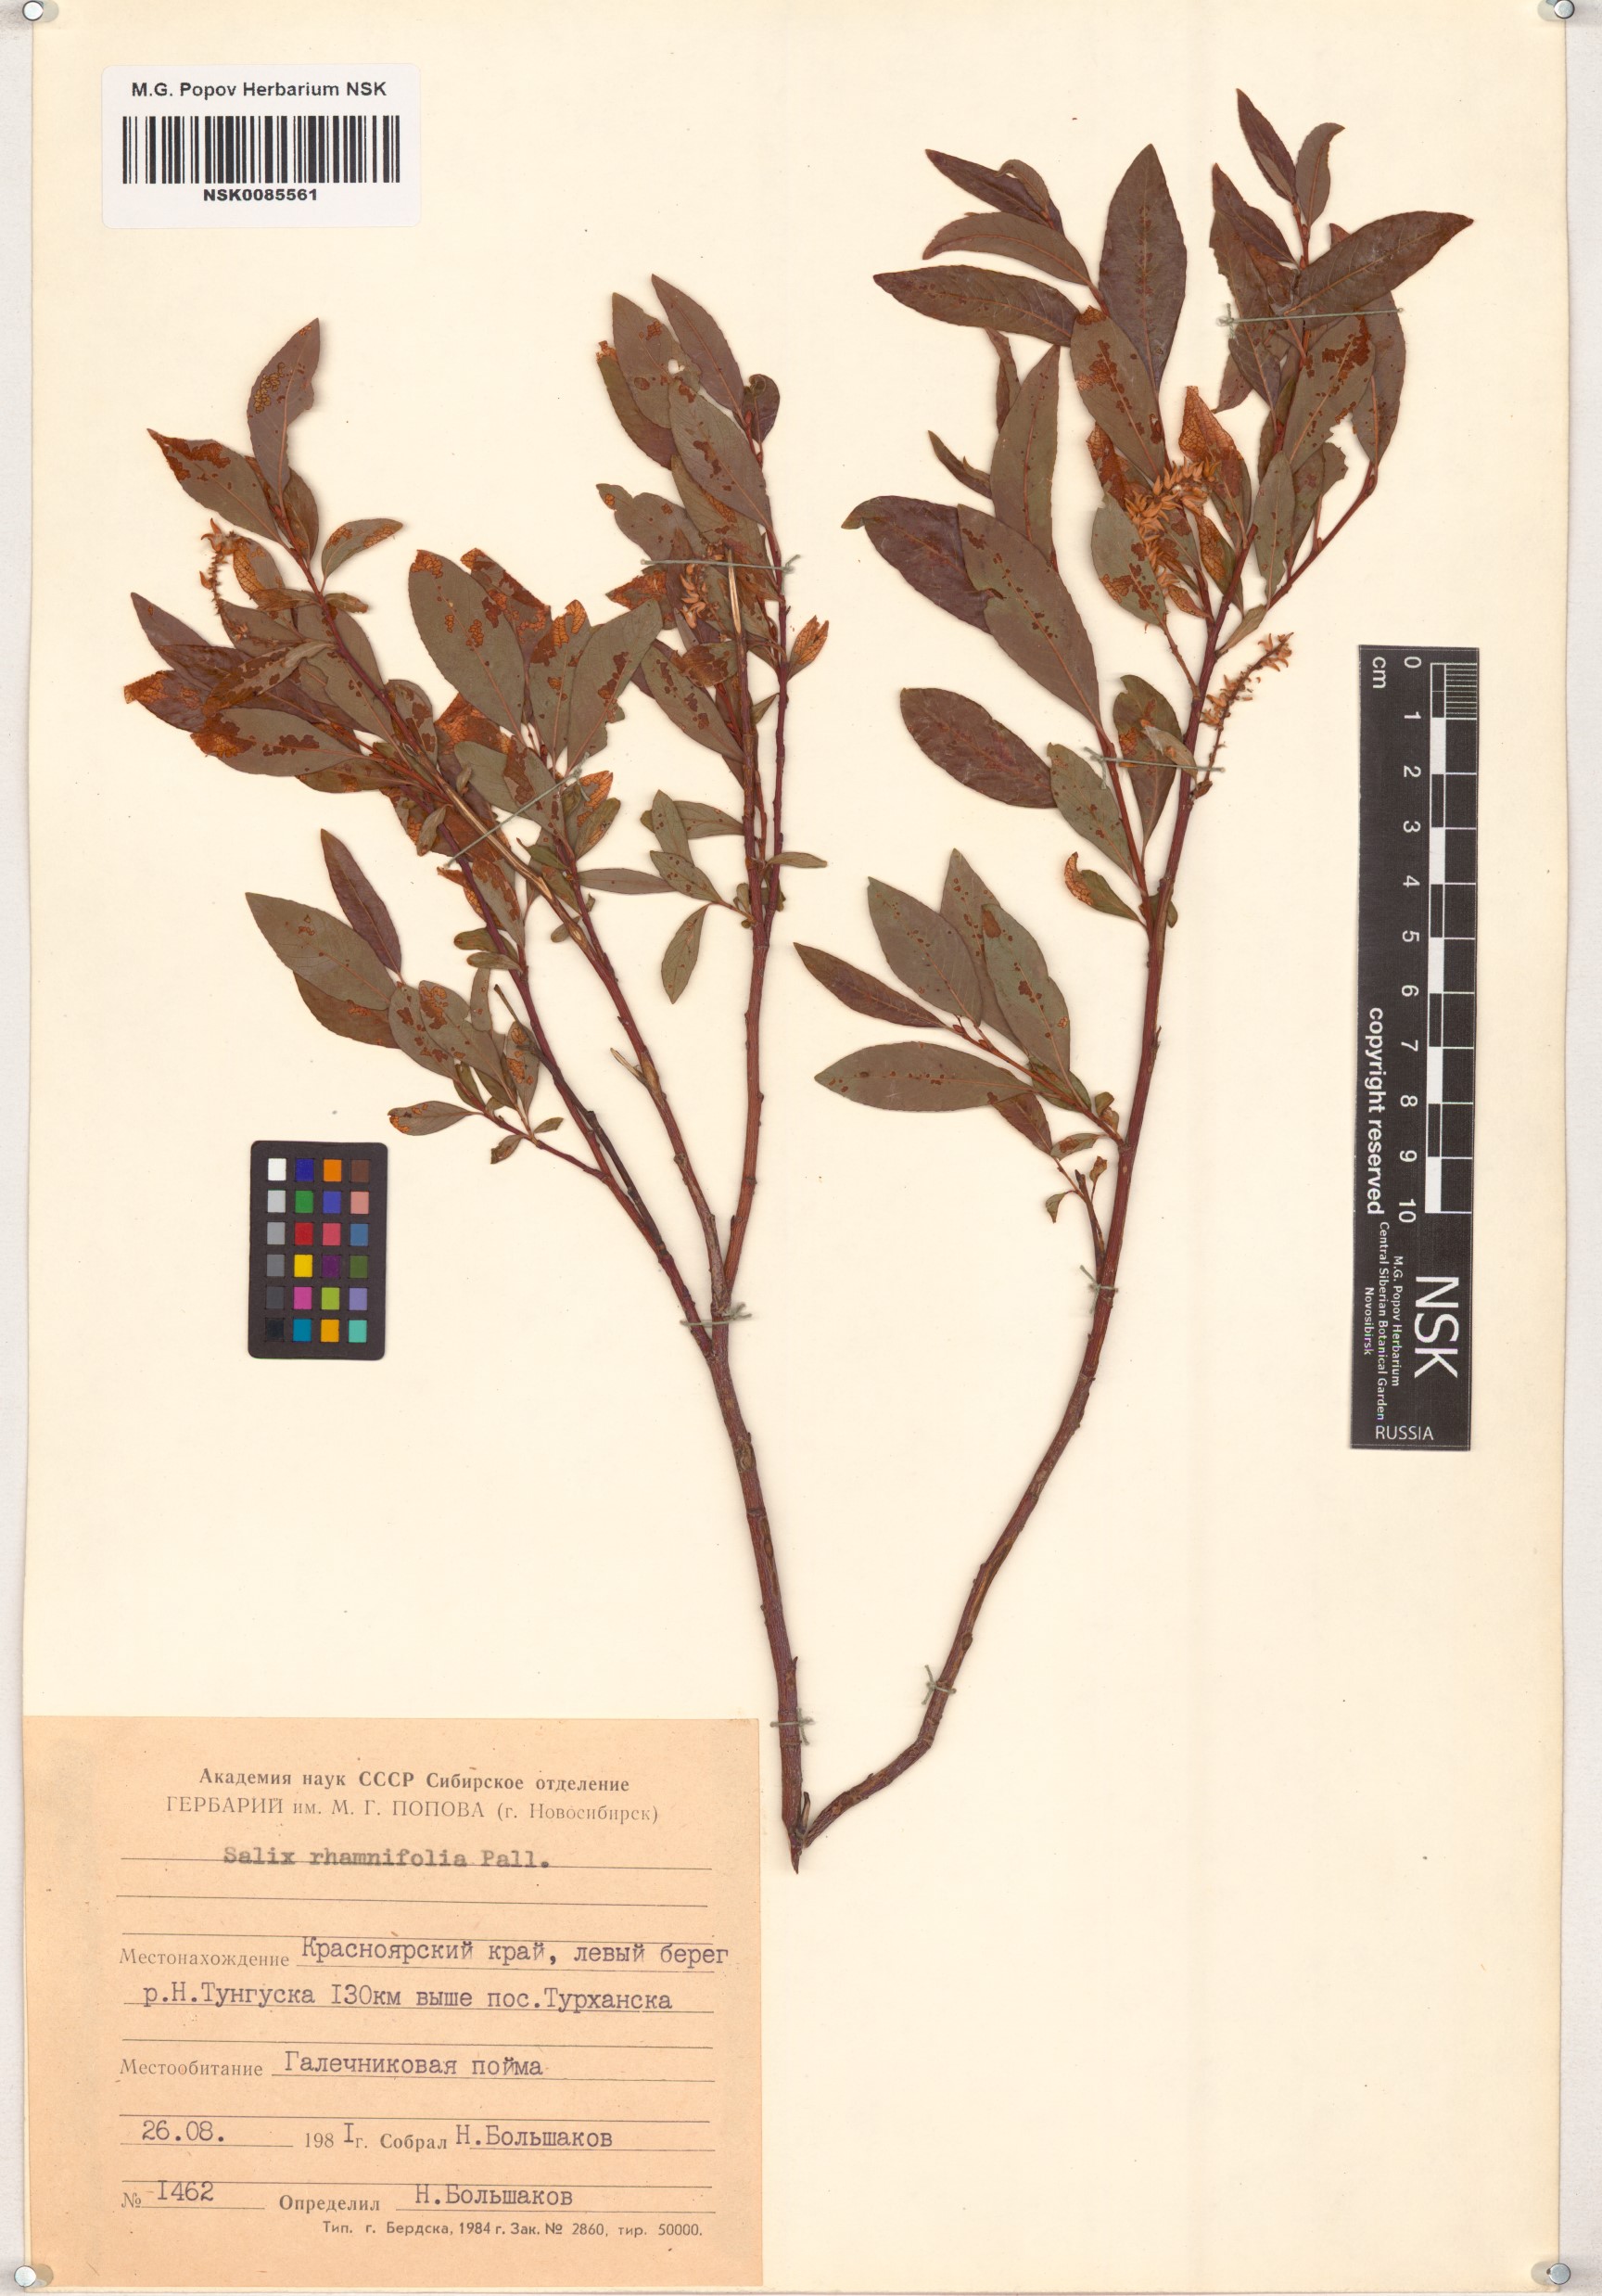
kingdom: Plantae
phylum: Tracheophyta
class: Magnoliopsida
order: Malpighiales
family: Salicaceae
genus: Salix
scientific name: Salix rhamnifolia
